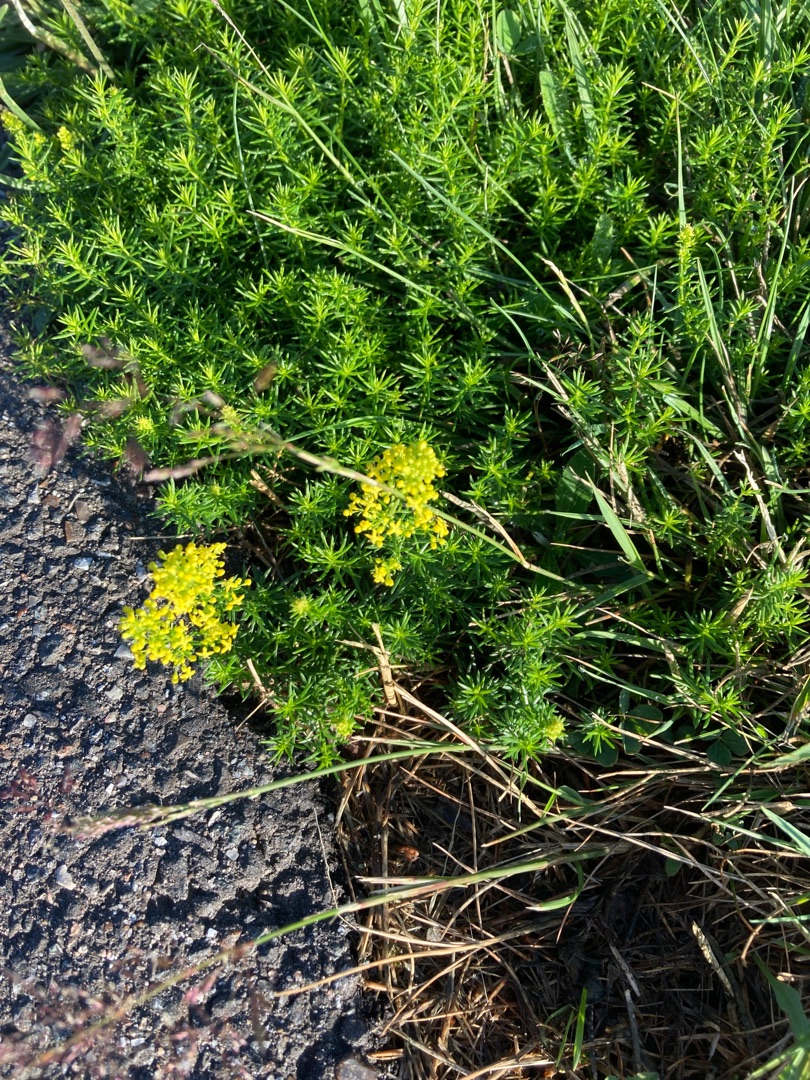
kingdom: Plantae
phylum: Tracheophyta
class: Magnoliopsida
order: Gentianales
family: Rubiaceae
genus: Galium
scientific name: Galium verum
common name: Gul snerre
